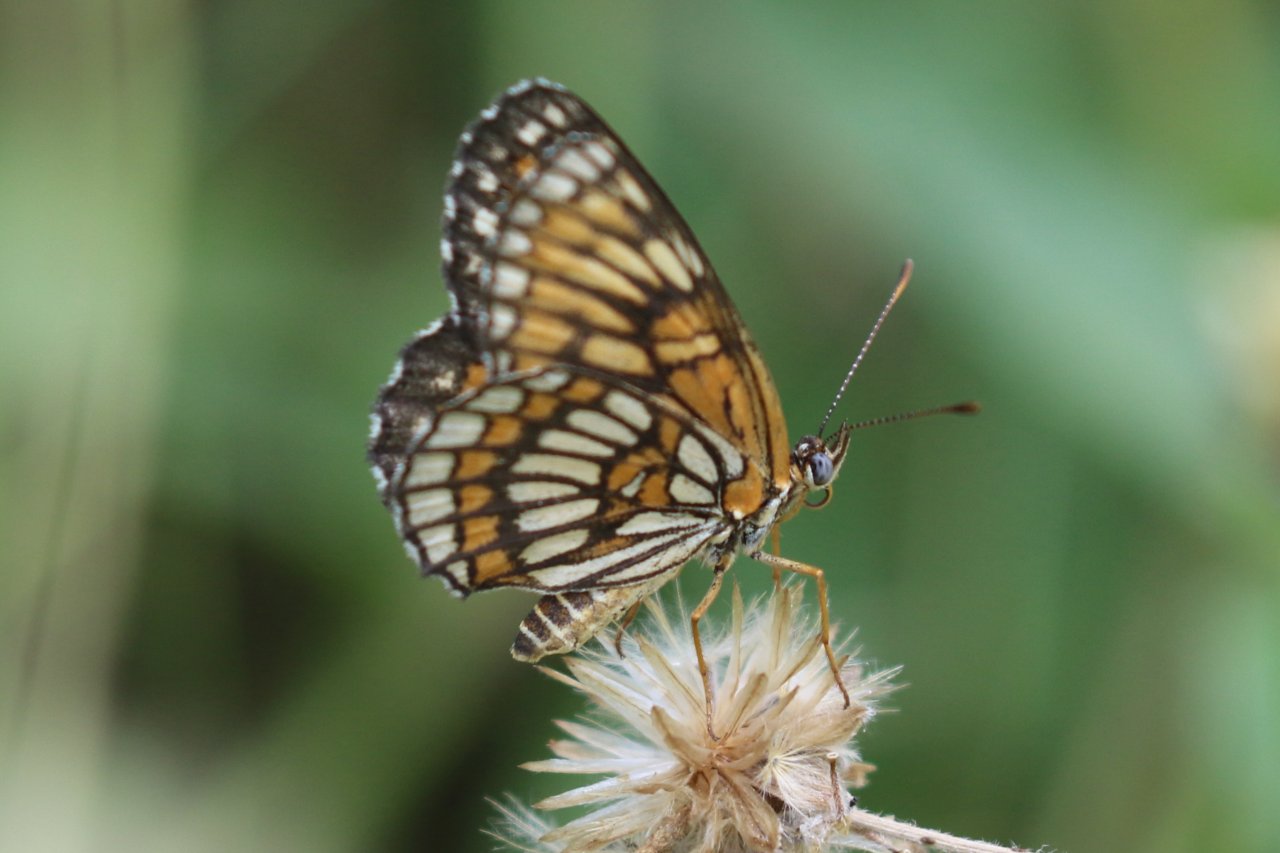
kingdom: Animalia
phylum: Arthropoda
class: Insecta
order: Lepidoptera
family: Nymphalidae
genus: Thessalia
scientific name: Thessalia theona
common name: Theona Checkerspot
